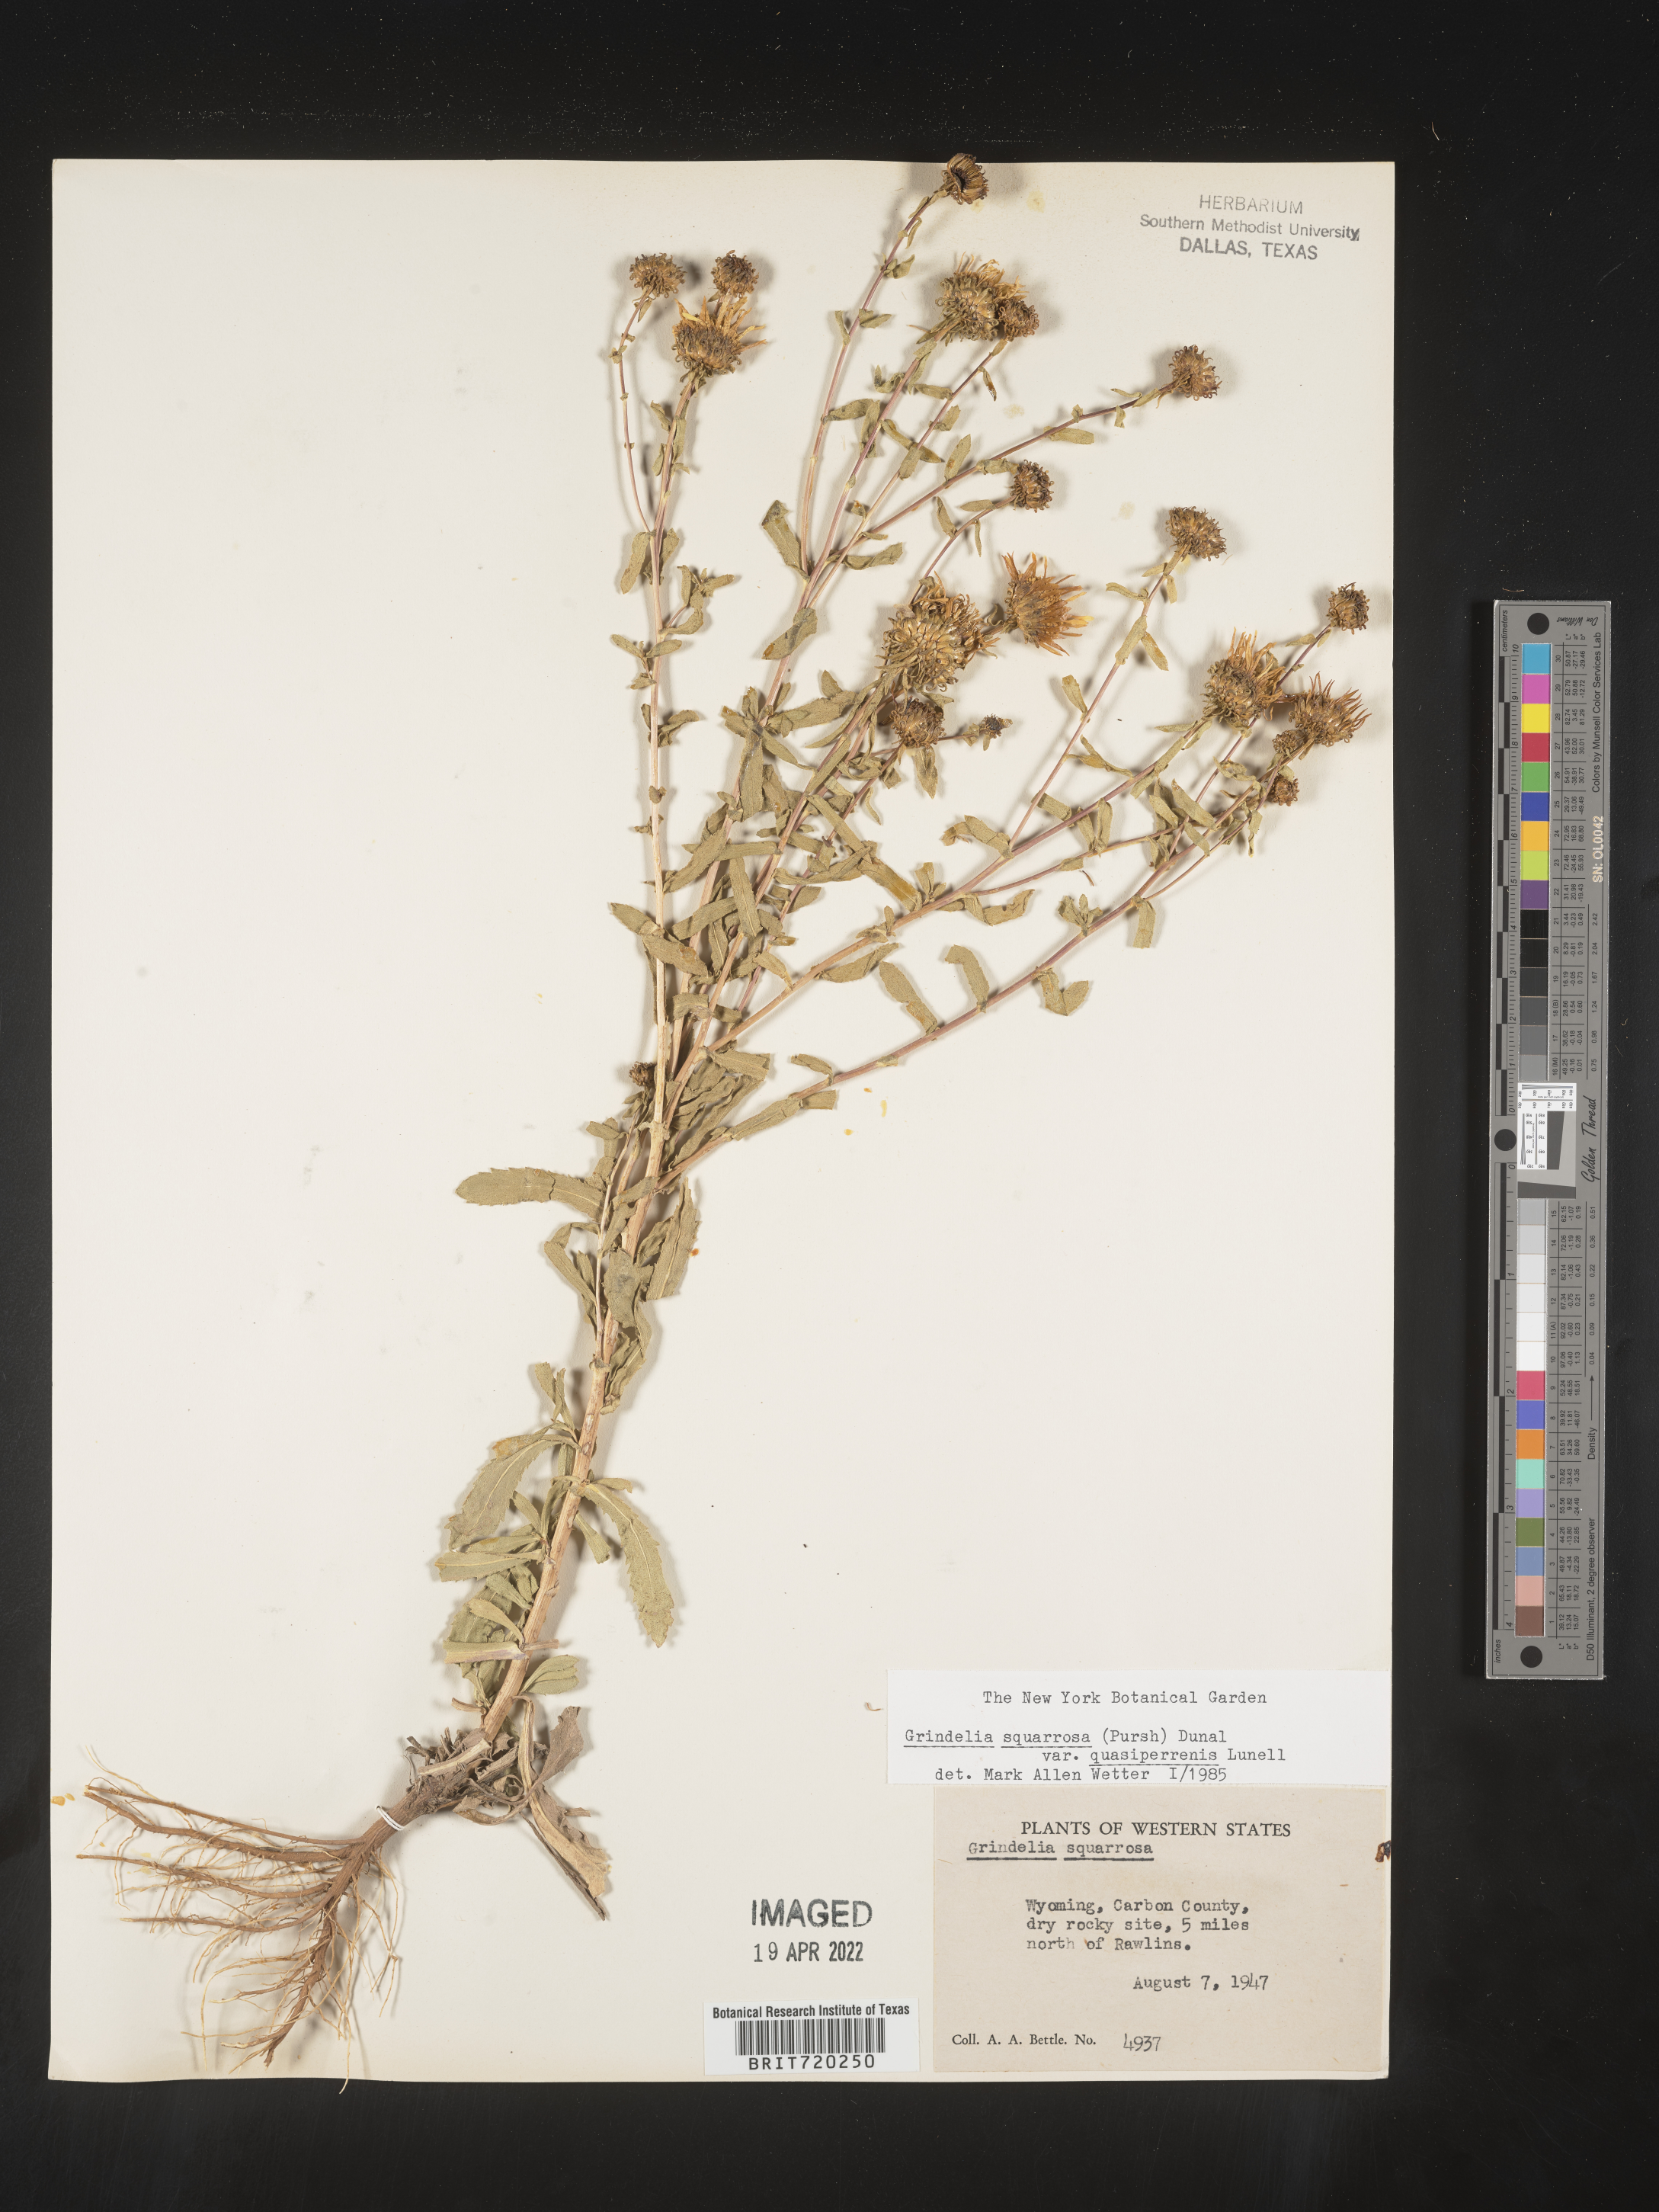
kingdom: Plantae
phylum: Tracheophyta
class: Magnoliopsida
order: Asterales
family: Asteraceae
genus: Grindelia
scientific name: Grindelia hirsutula
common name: Hairy gumweed
